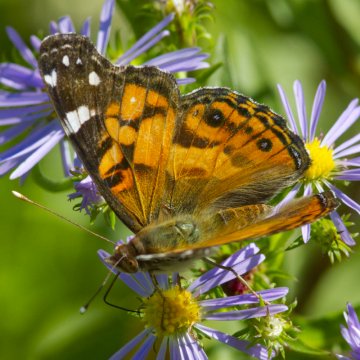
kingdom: Animalia
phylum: Arthropoda
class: Insecta
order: Lepidoptera
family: Nymphalidae
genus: Vanessa
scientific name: Vanessa virginiensis
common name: American Lady
